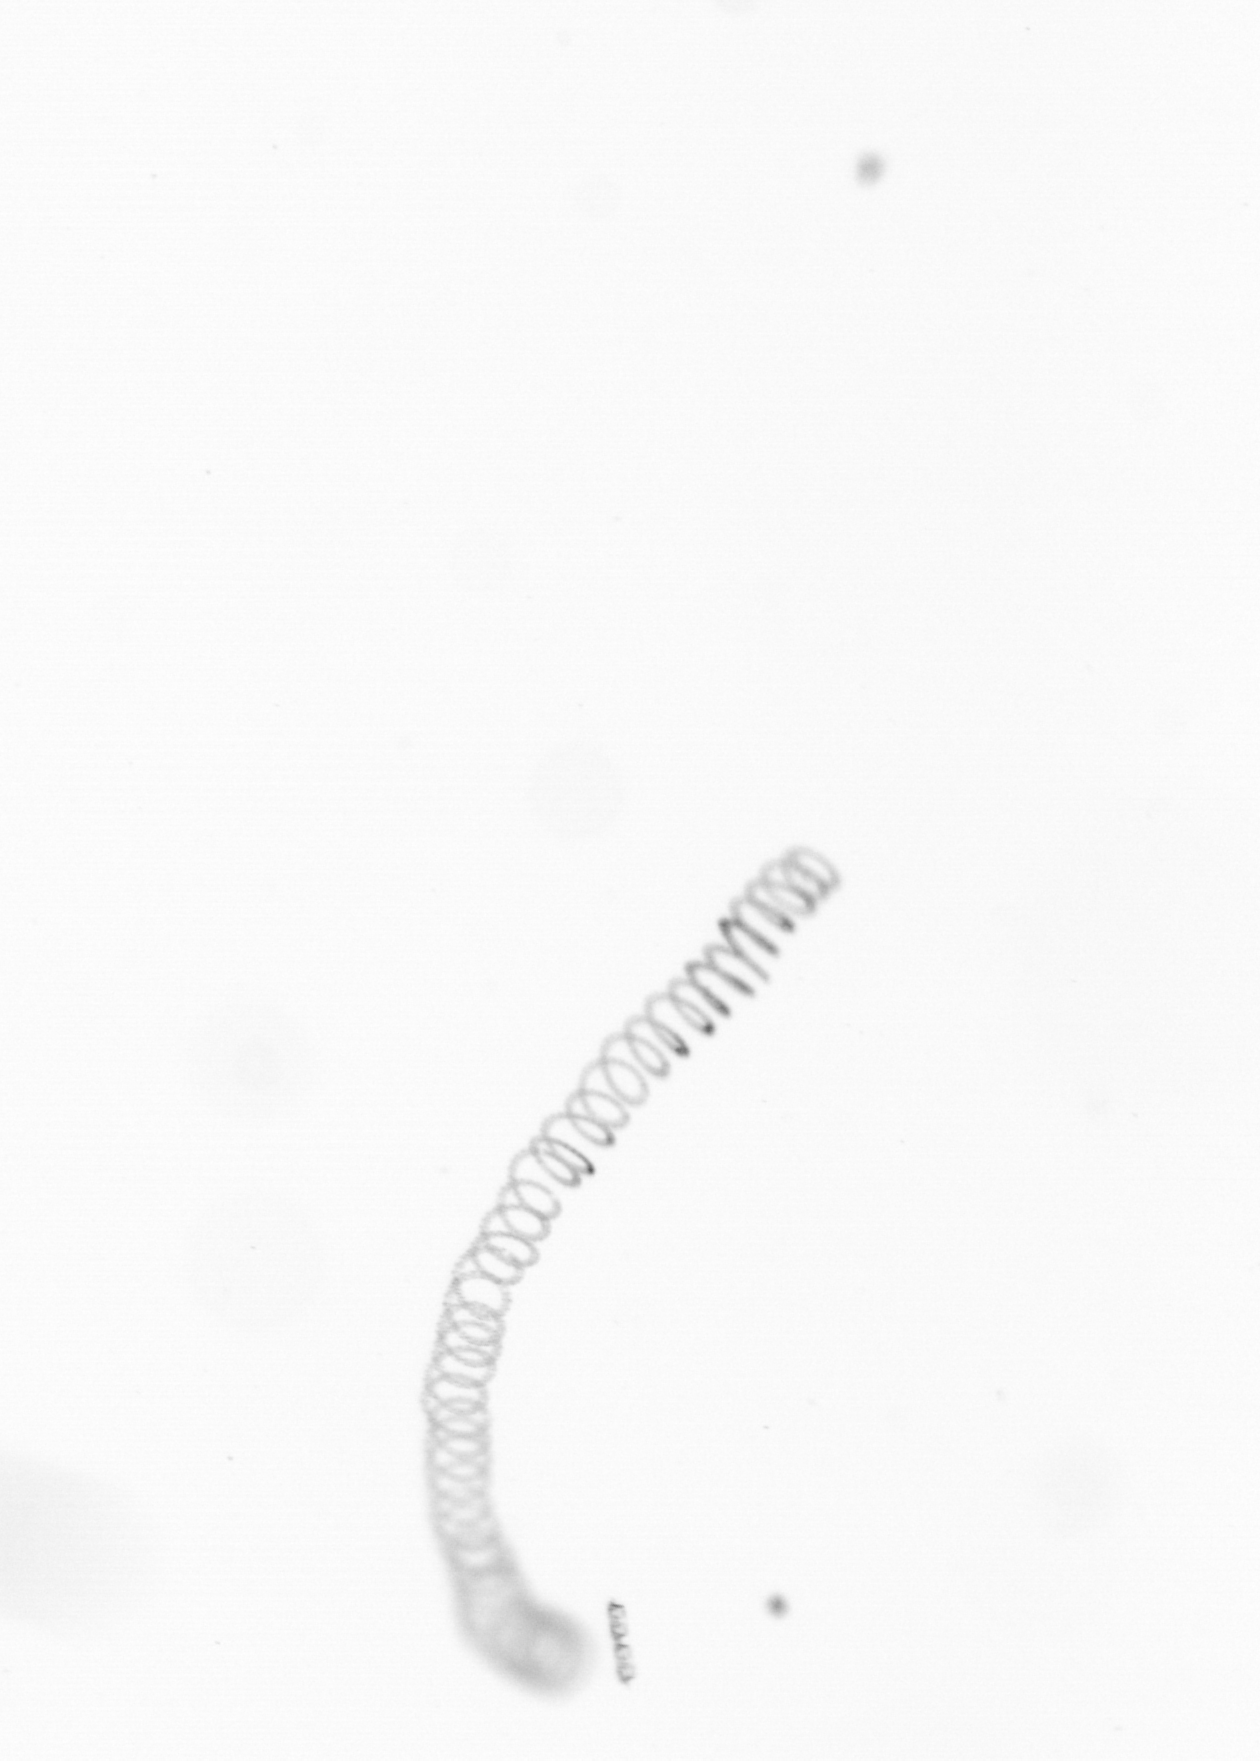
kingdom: Chromista
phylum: Ochrophyta
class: Bacillariophyceae
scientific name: Bacillariophyceae
